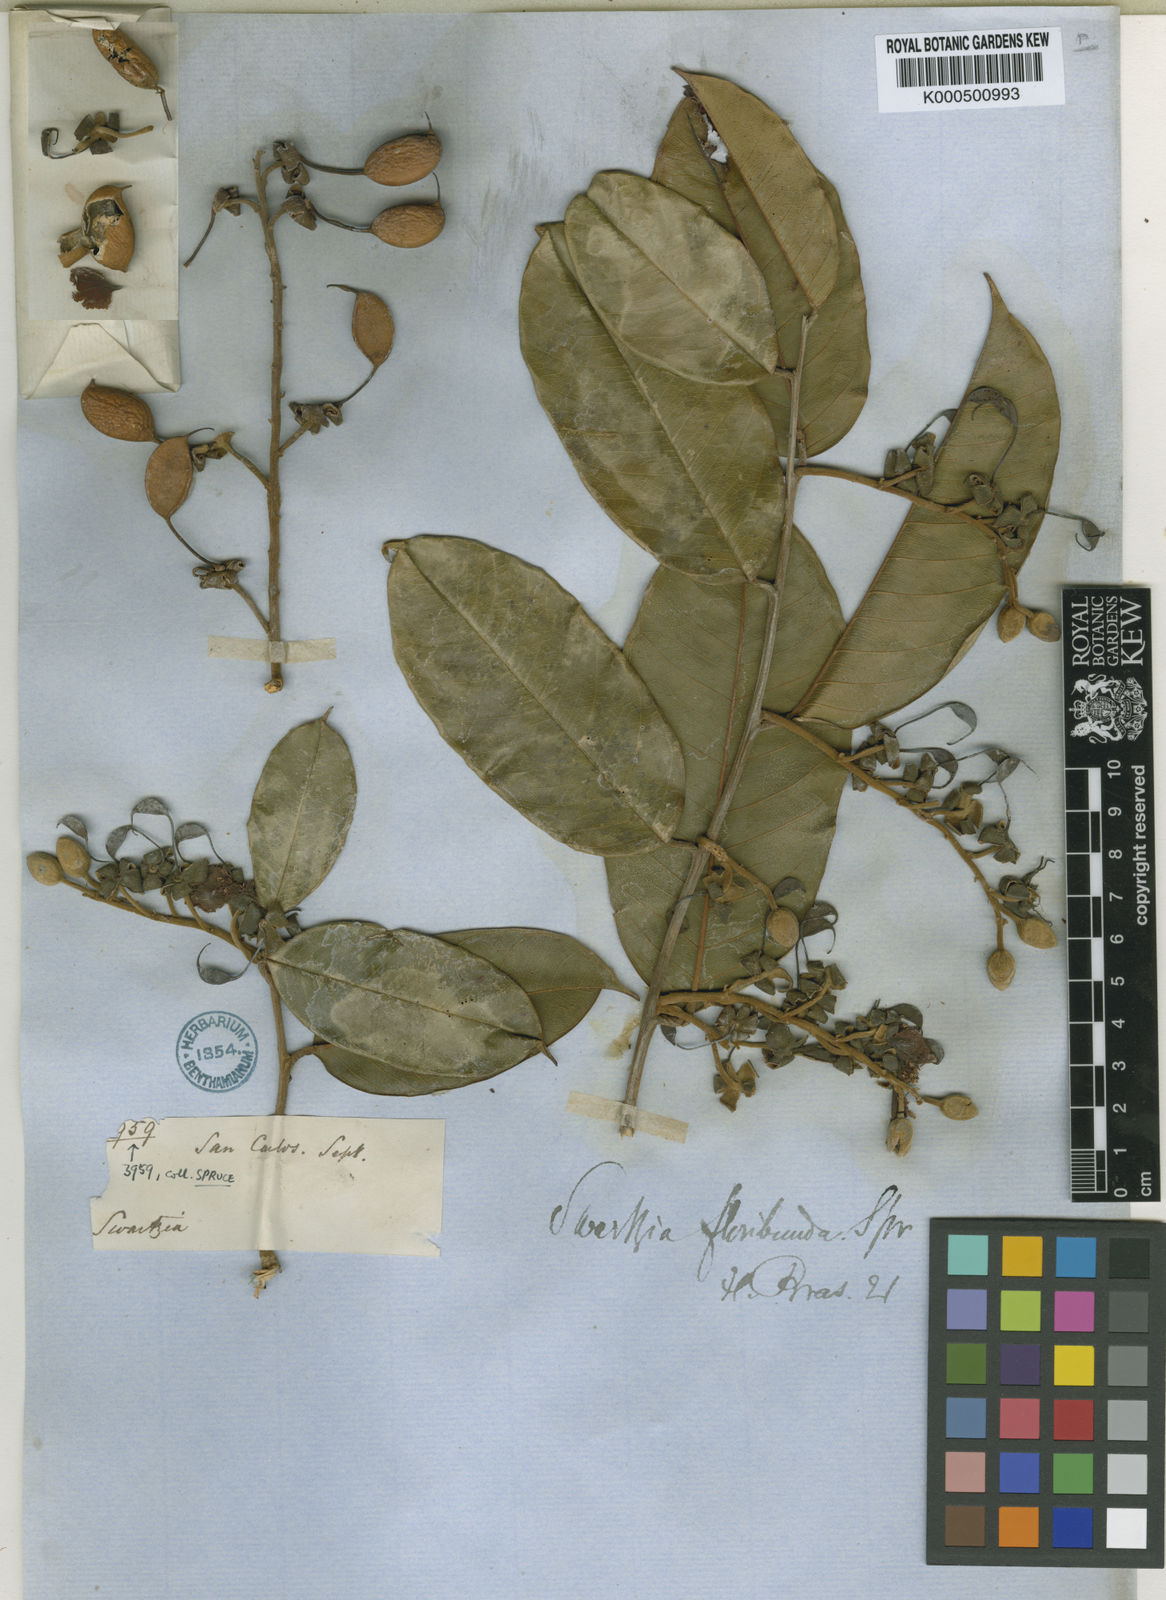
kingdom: Plantae
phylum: Tracheophyta
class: Magnoliopsida
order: Fabales
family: Fabaceae
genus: Swartzia
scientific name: Swartzia floribunda
